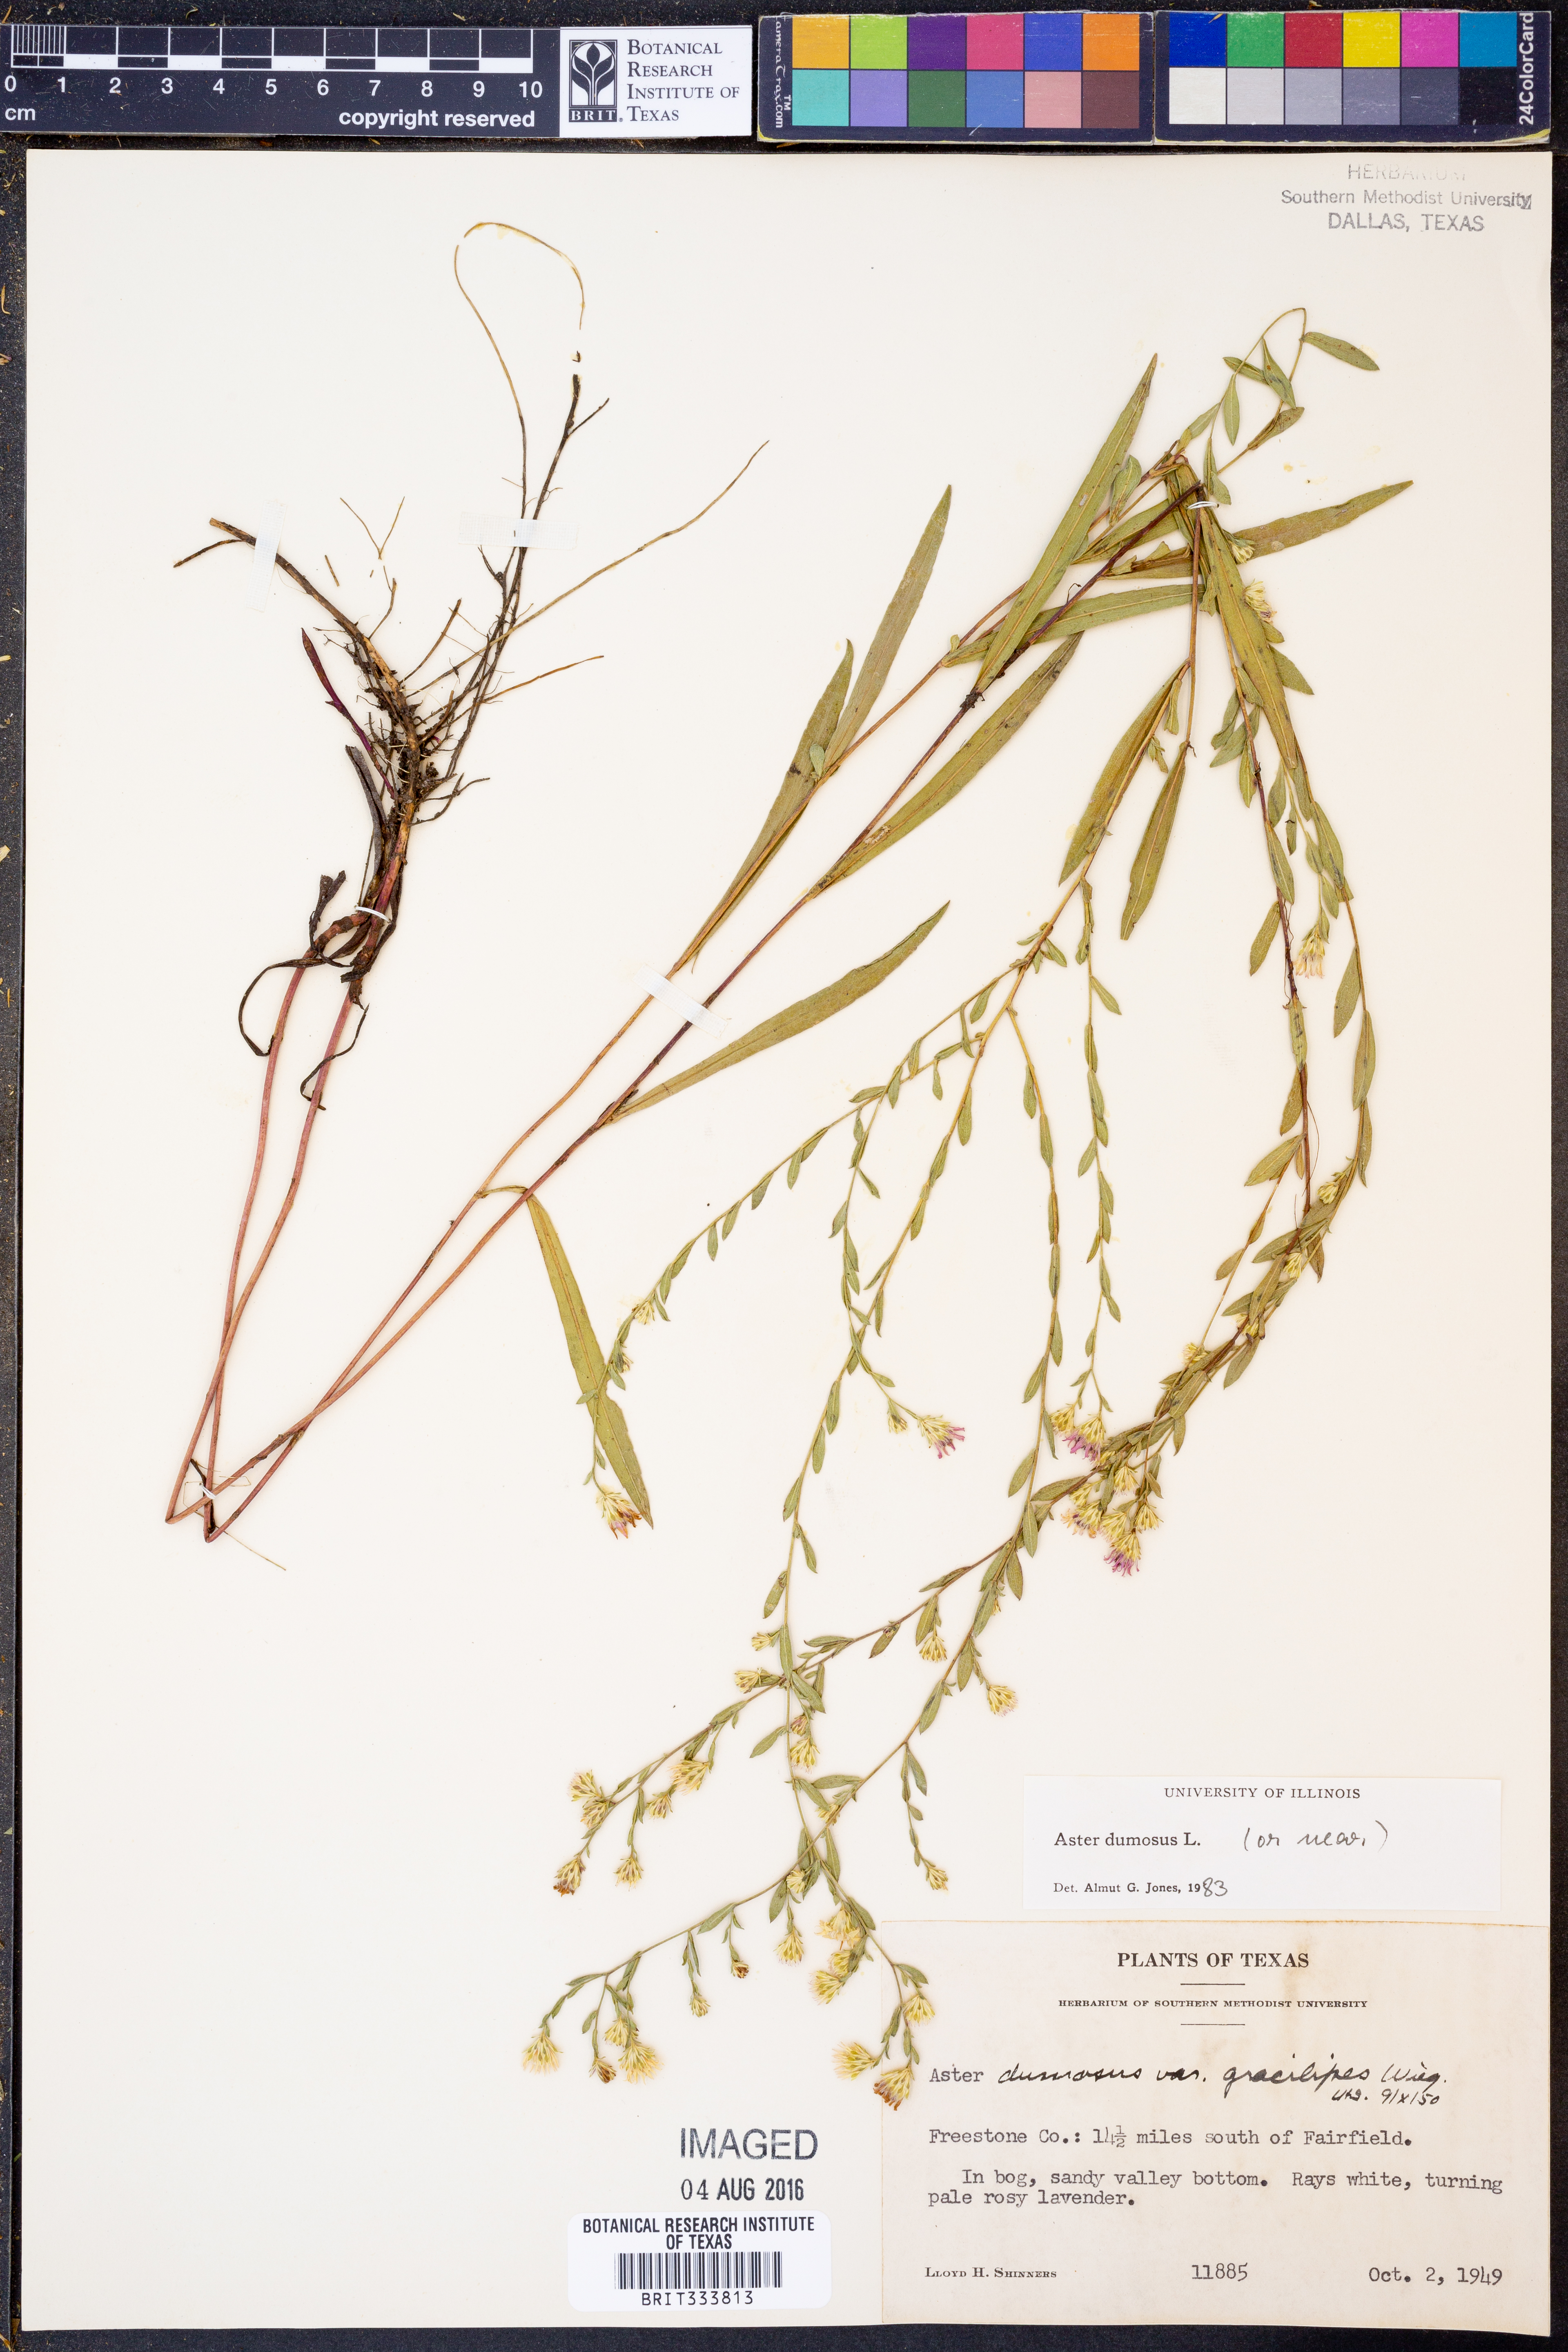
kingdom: Plantae
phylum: Tracheophyta
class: Magnoliopsida
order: Asterales
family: Asteraceae
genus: Symphyotrichum
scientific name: Symphyotrichum dumosum
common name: Bushy aster
